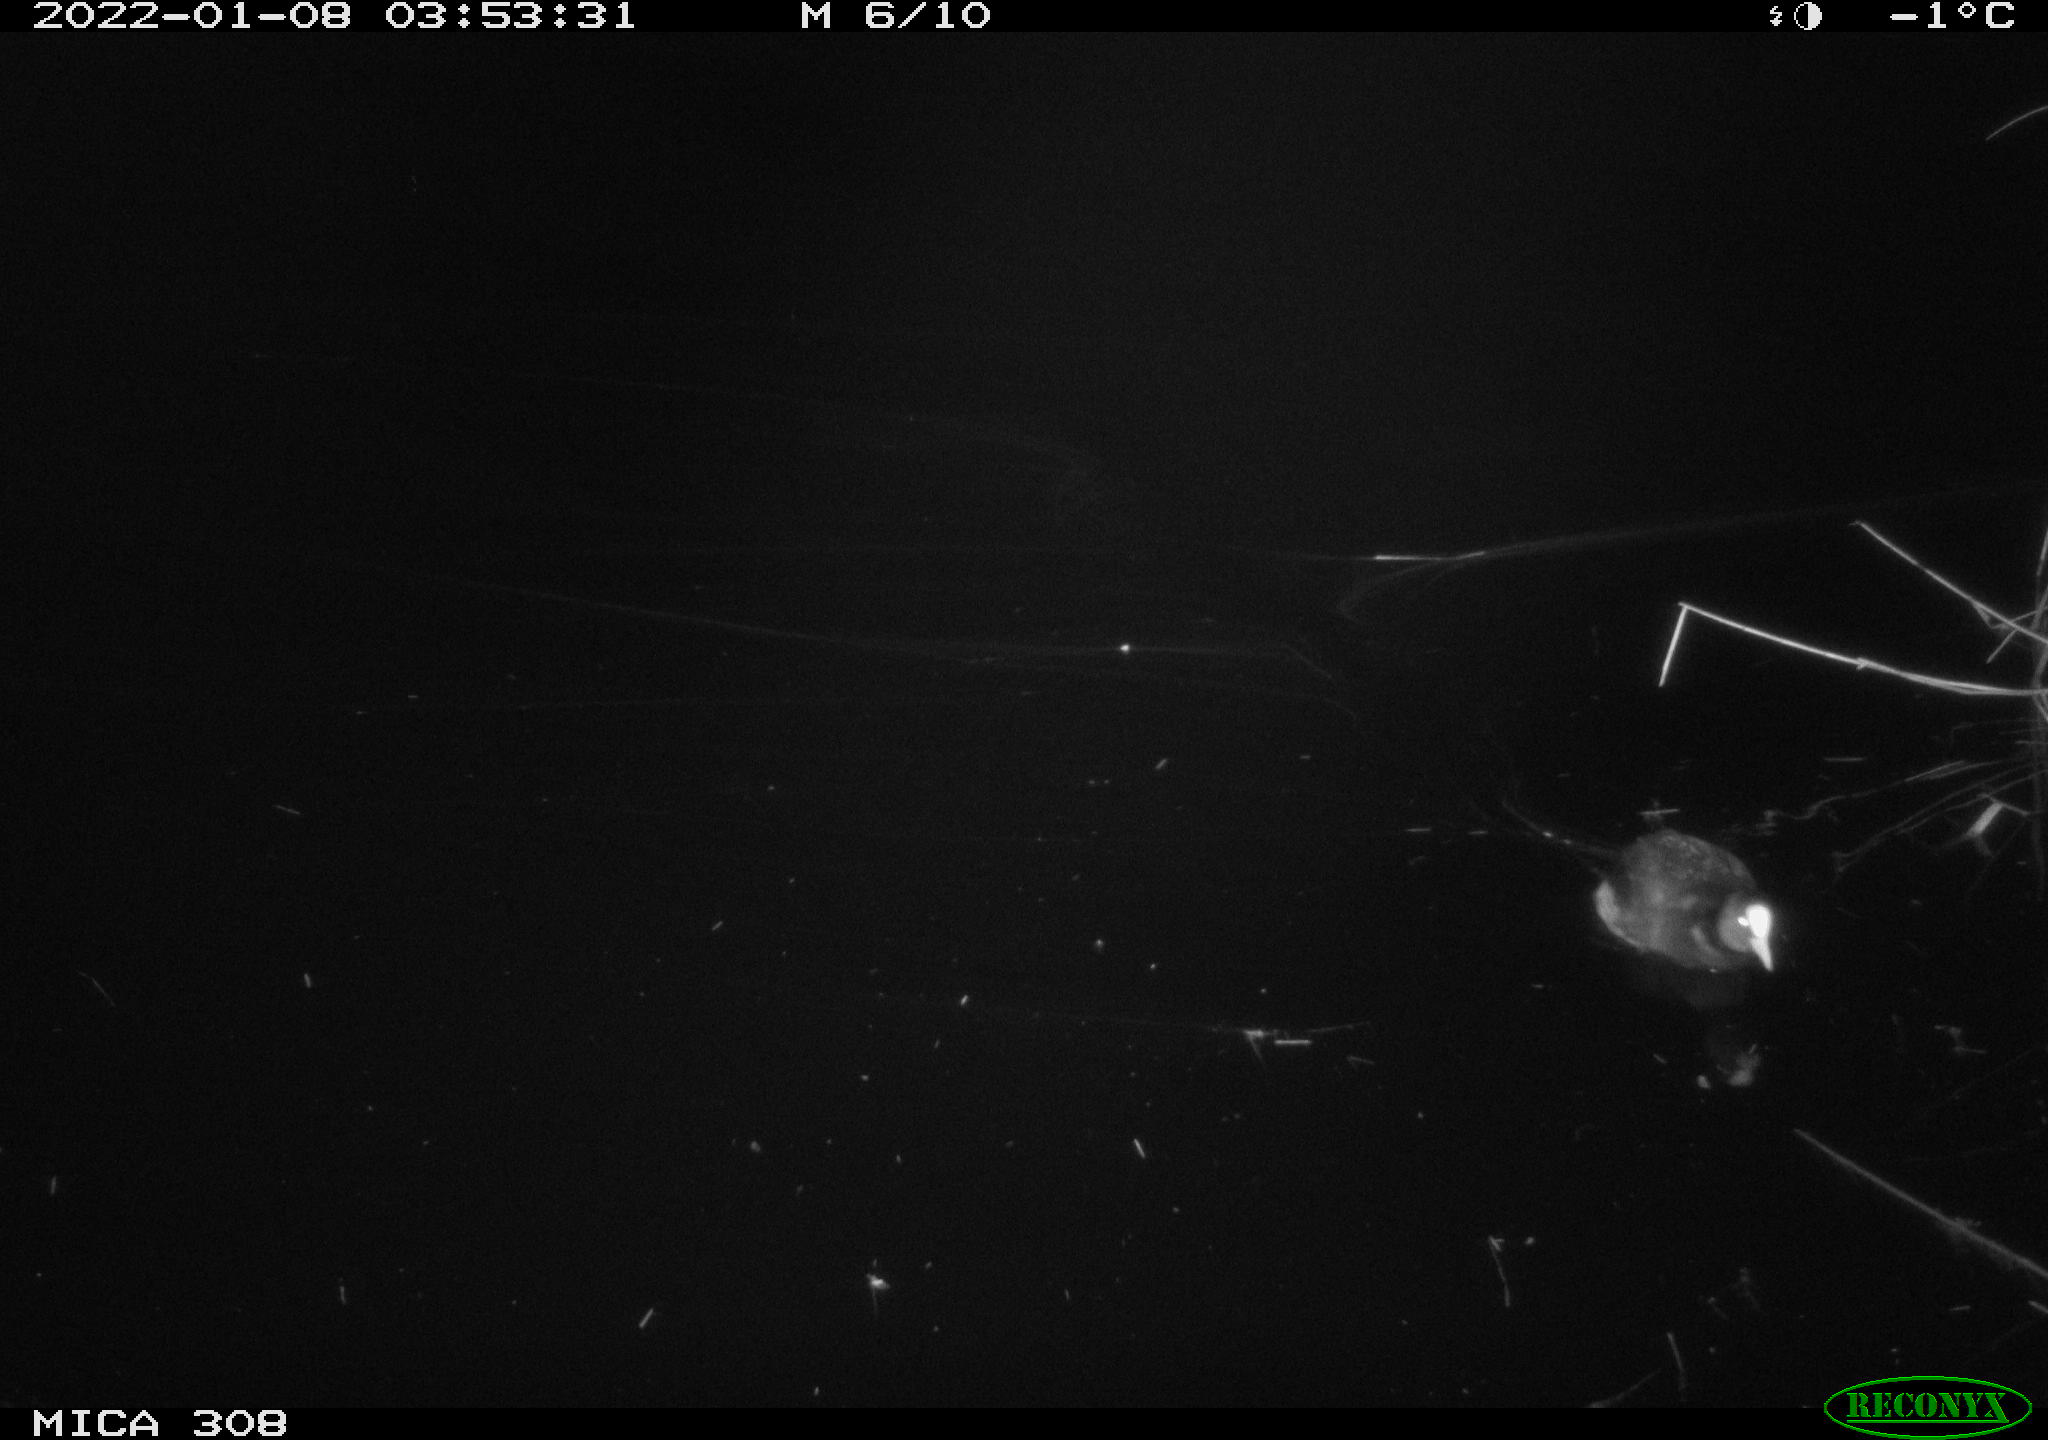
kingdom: Animalia
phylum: Chordata
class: Aves
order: Gruiformes
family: Rallidae
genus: Fulica
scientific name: Fulica atra
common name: Eurasian coot
